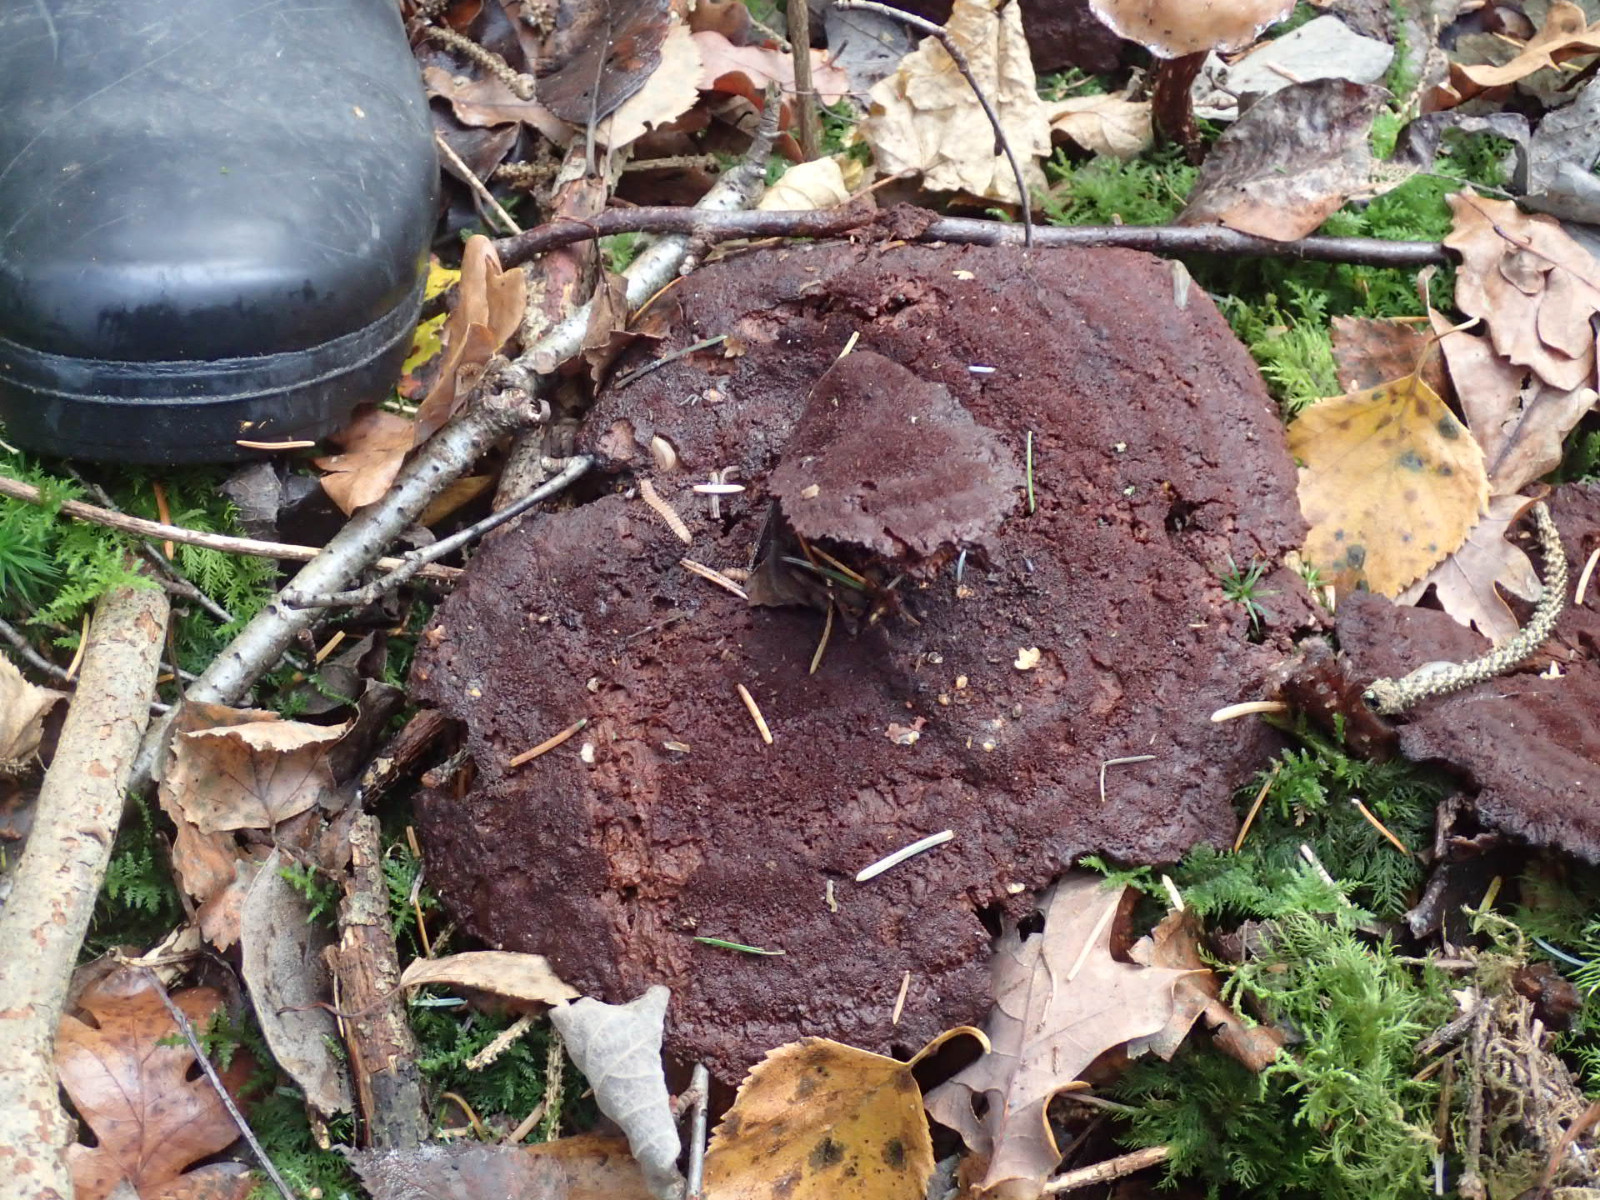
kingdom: Fungi
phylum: Basidiomycota
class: Agaricomycetes
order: Polyporales
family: Laetiporaceae
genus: Phaeolus
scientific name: Phaeolus schweinitzii
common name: brunporesvamp
